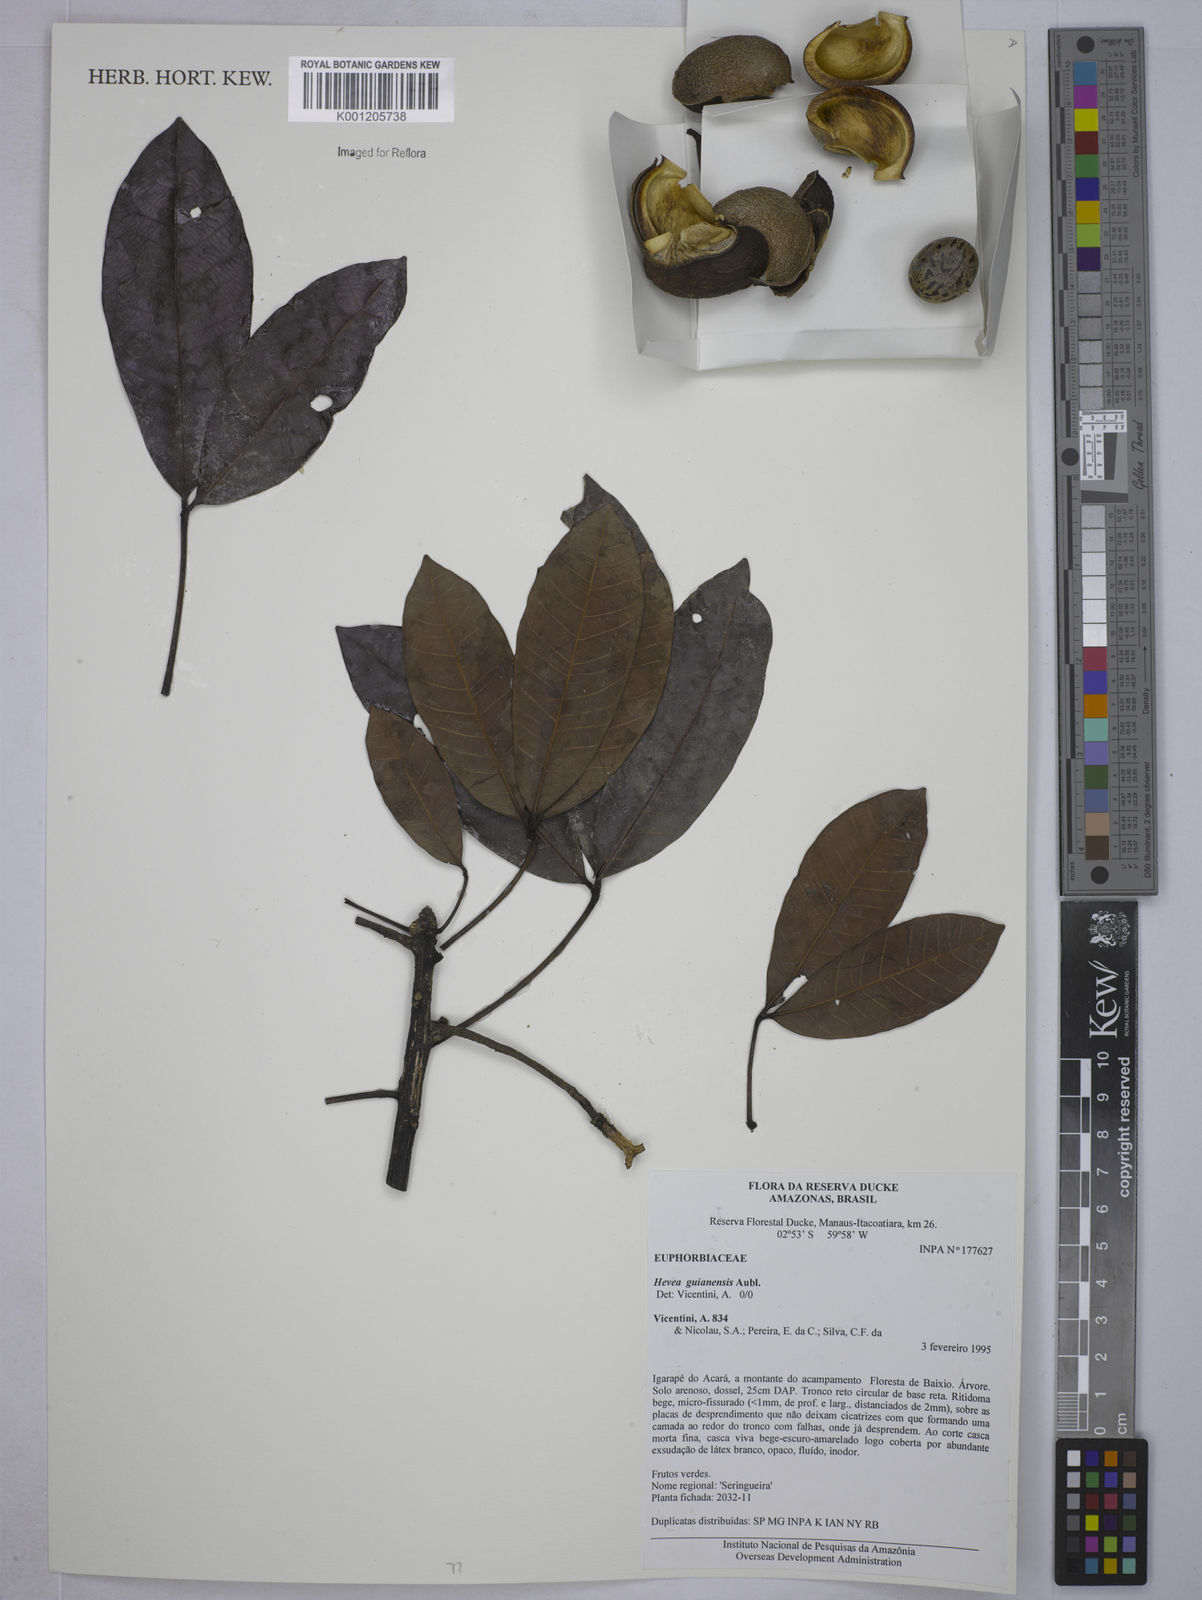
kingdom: Plantae
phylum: Tracheophyta
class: Magnoliopsida
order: Malpighiales
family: Euphorbiaceae
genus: Hevea
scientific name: Hevea guianensis
